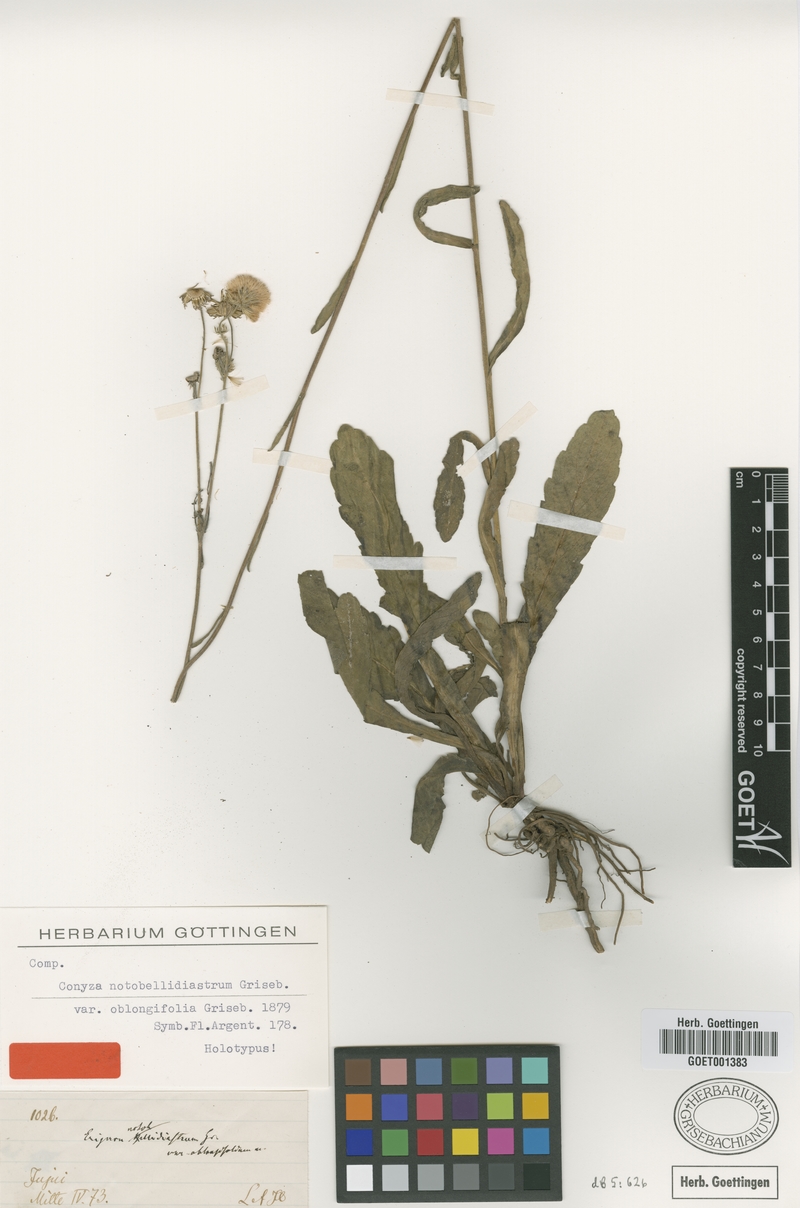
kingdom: Plantae
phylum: Tracheophyta
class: Magnoliopsida
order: Asterales
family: Asteraceae
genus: Exostigma
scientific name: Exostigma notobellidiastrum
